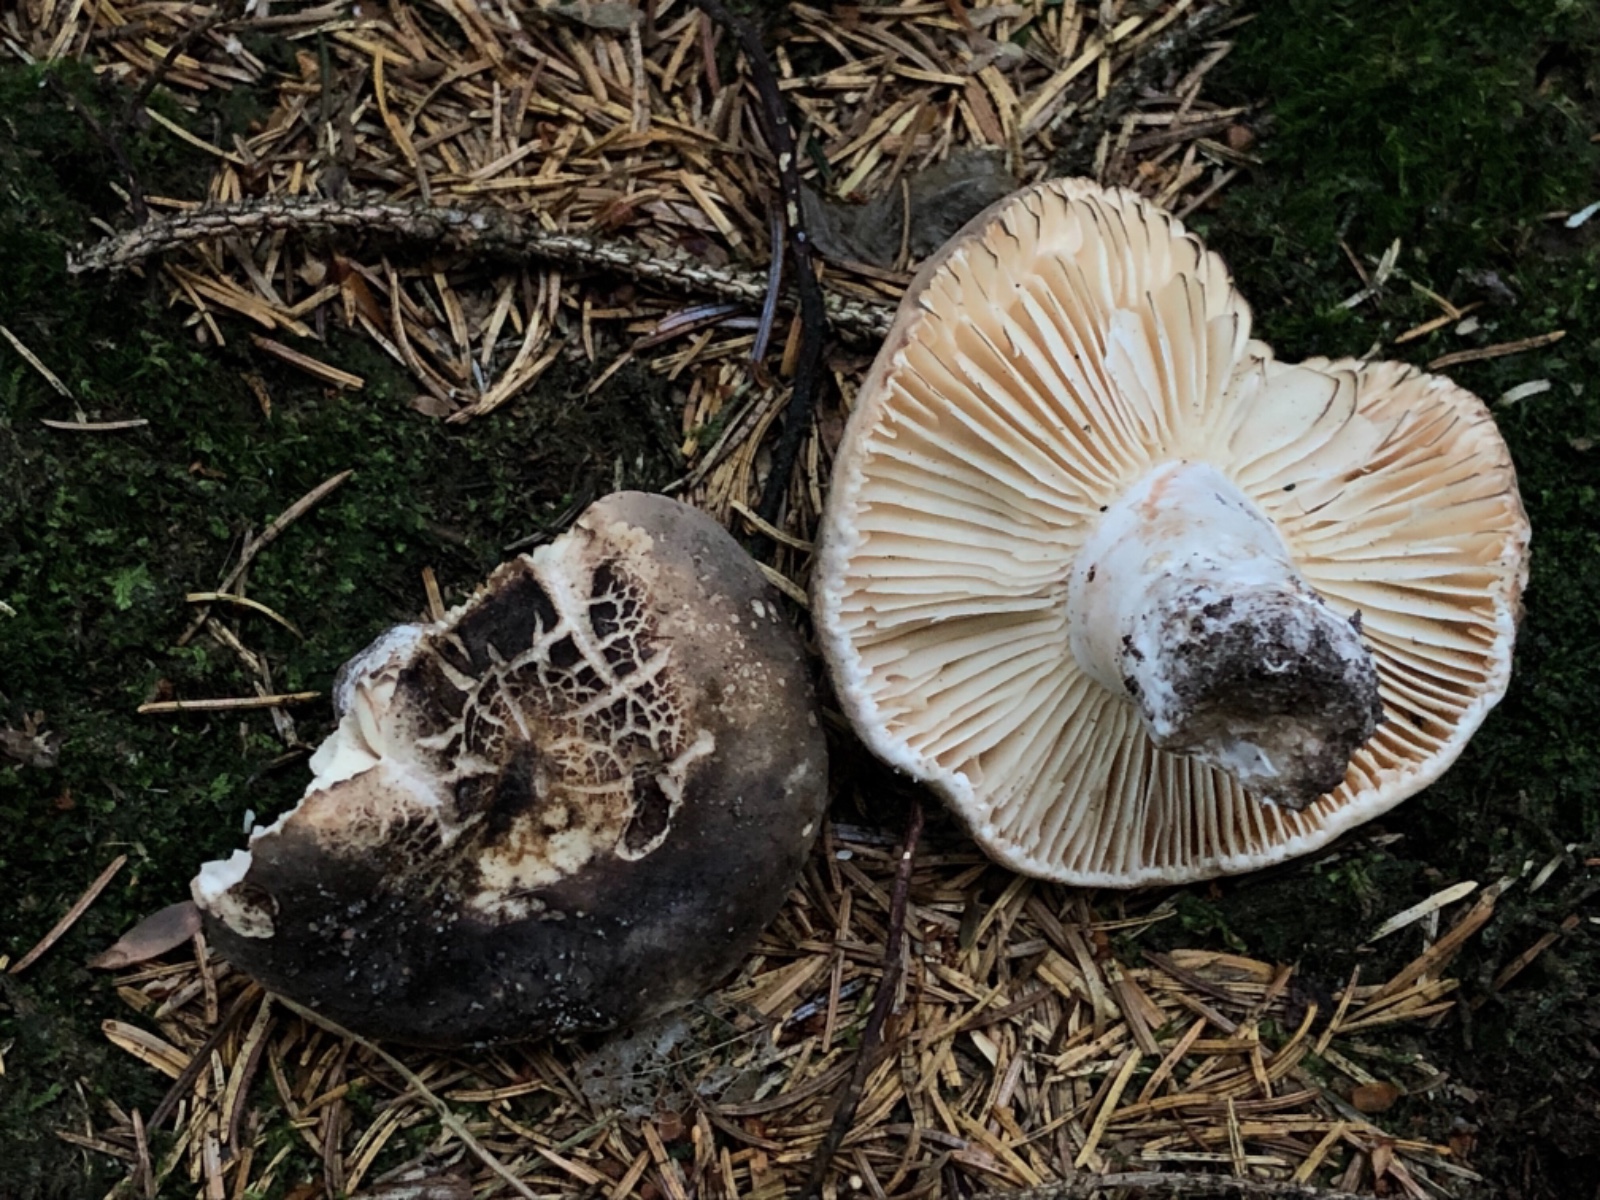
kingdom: Fungi
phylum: Basidiomycota
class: Agaricomycetes
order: Russulales
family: Russulaceae
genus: Russula
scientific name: Russula adusta
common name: sværtende skørhat
